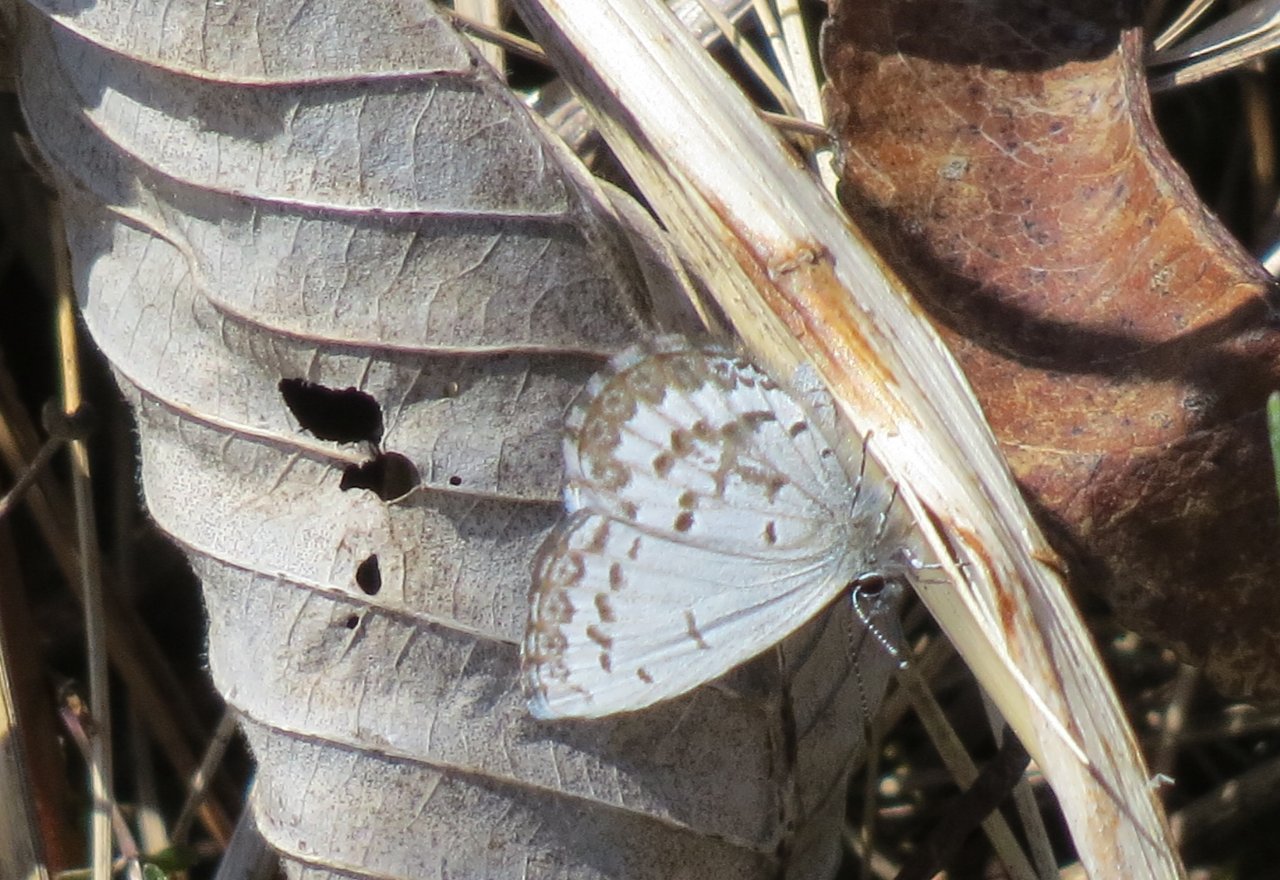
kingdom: Animalia
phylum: Arthropoda
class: Insecta
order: Lepidoptera
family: Lycaenidae
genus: Celastrina
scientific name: Celastrina lucia
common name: Northern Spring Azure
